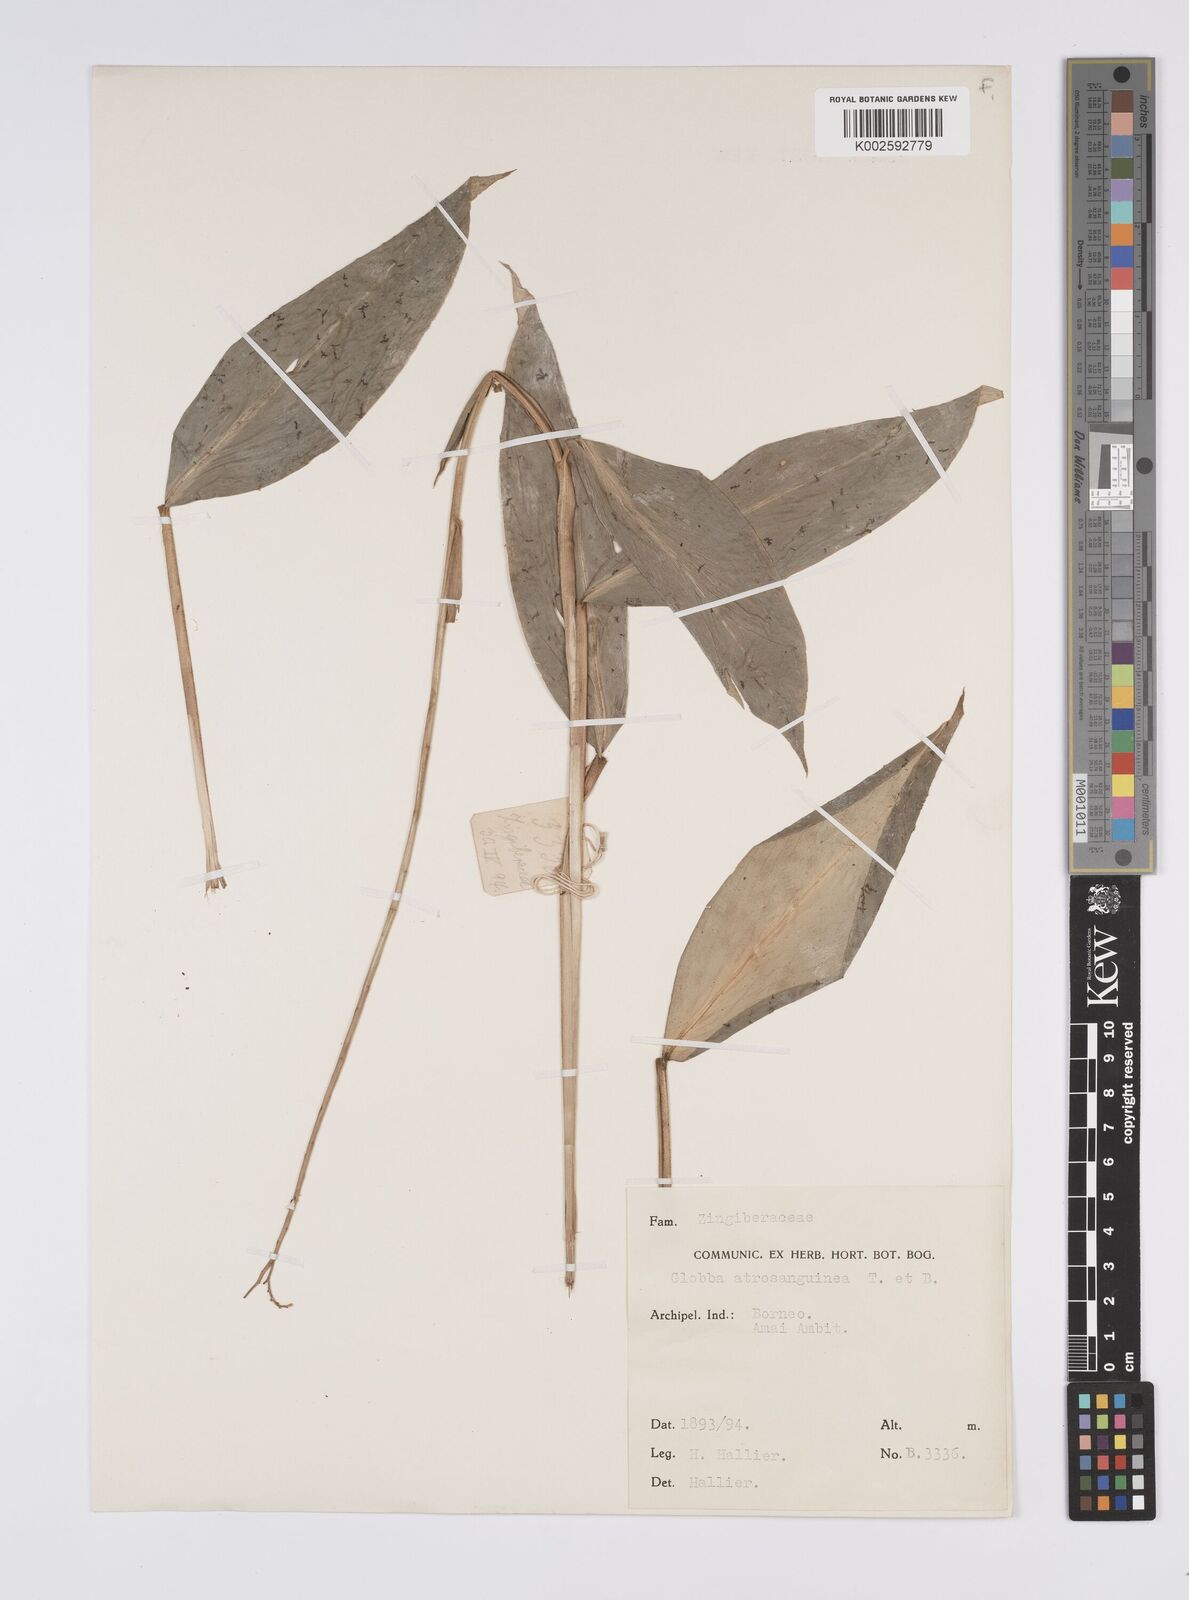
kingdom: Plantae
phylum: Tracheophyta
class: Liliopsida
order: Zingiberales
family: Zingiberaceae
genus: Globba
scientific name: Globba atrosanguinea
